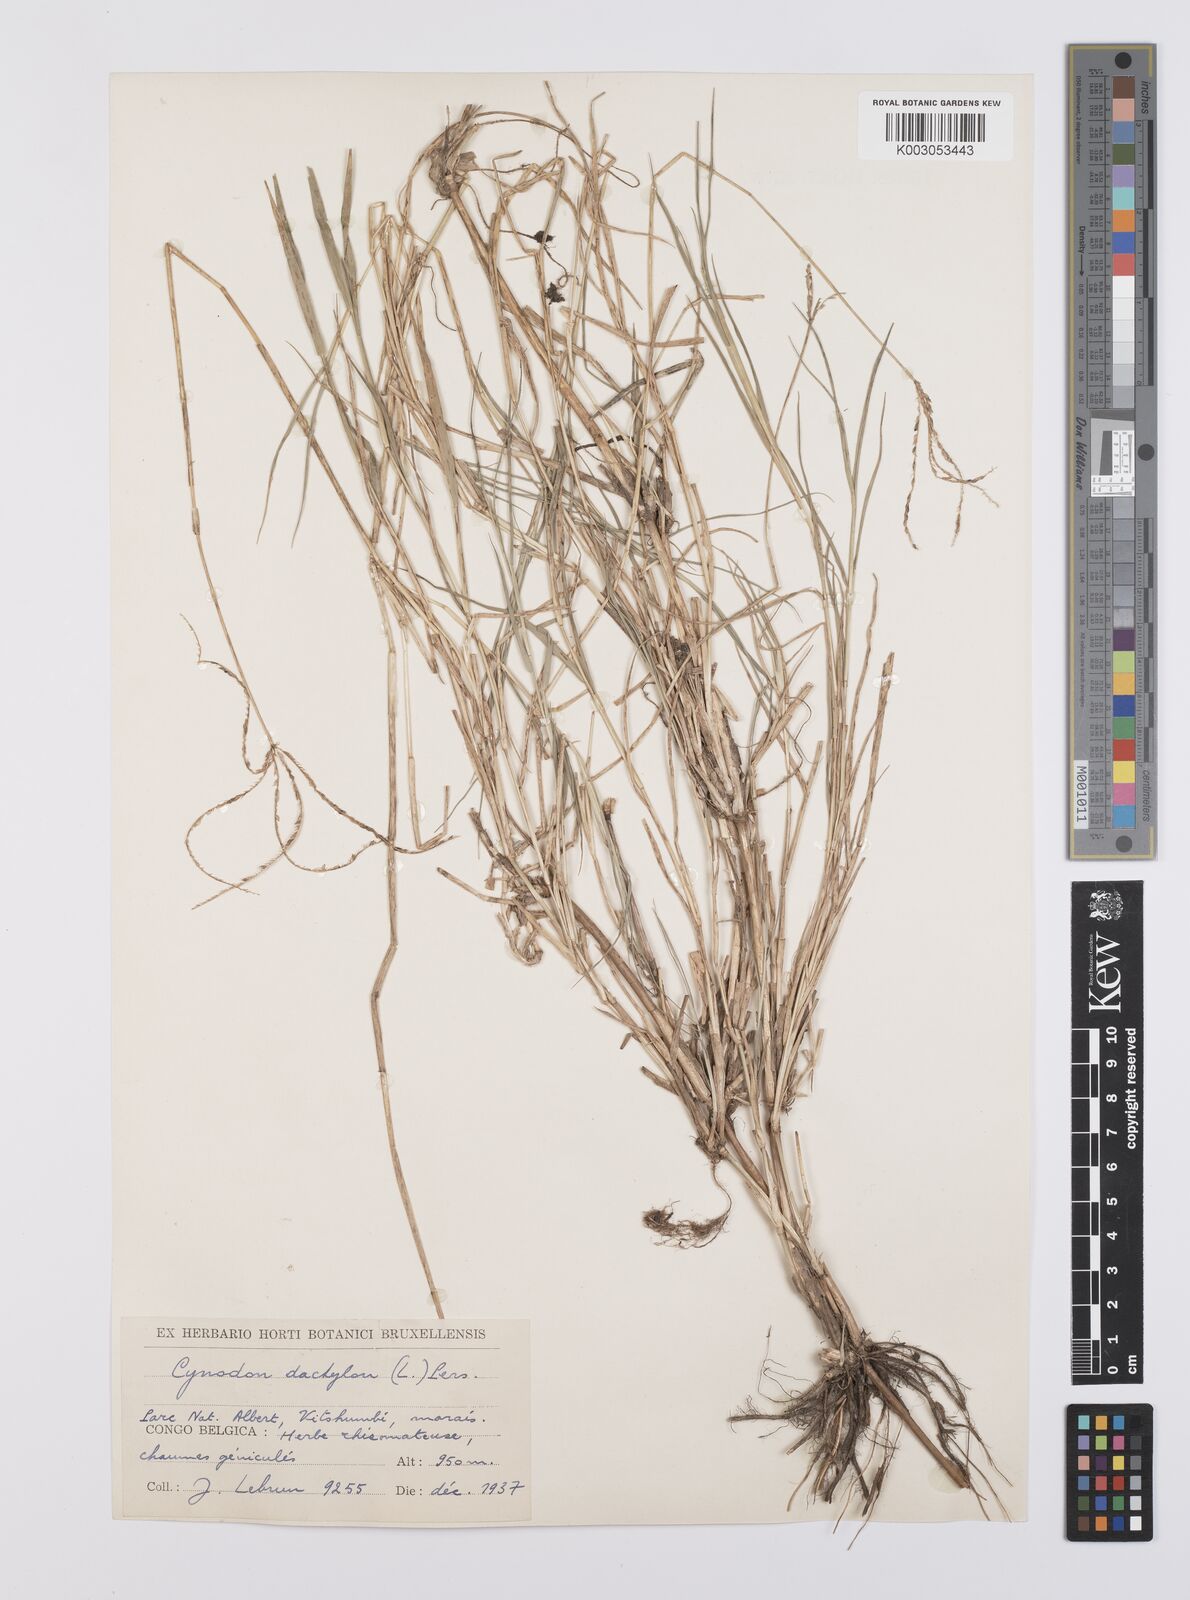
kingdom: Plantae
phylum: Tracheophyta
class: Liliopsida
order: Poales
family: Poaceae
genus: Cynodon
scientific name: Cynodon aethiopicus
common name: Ethiopian dogstooth grass
